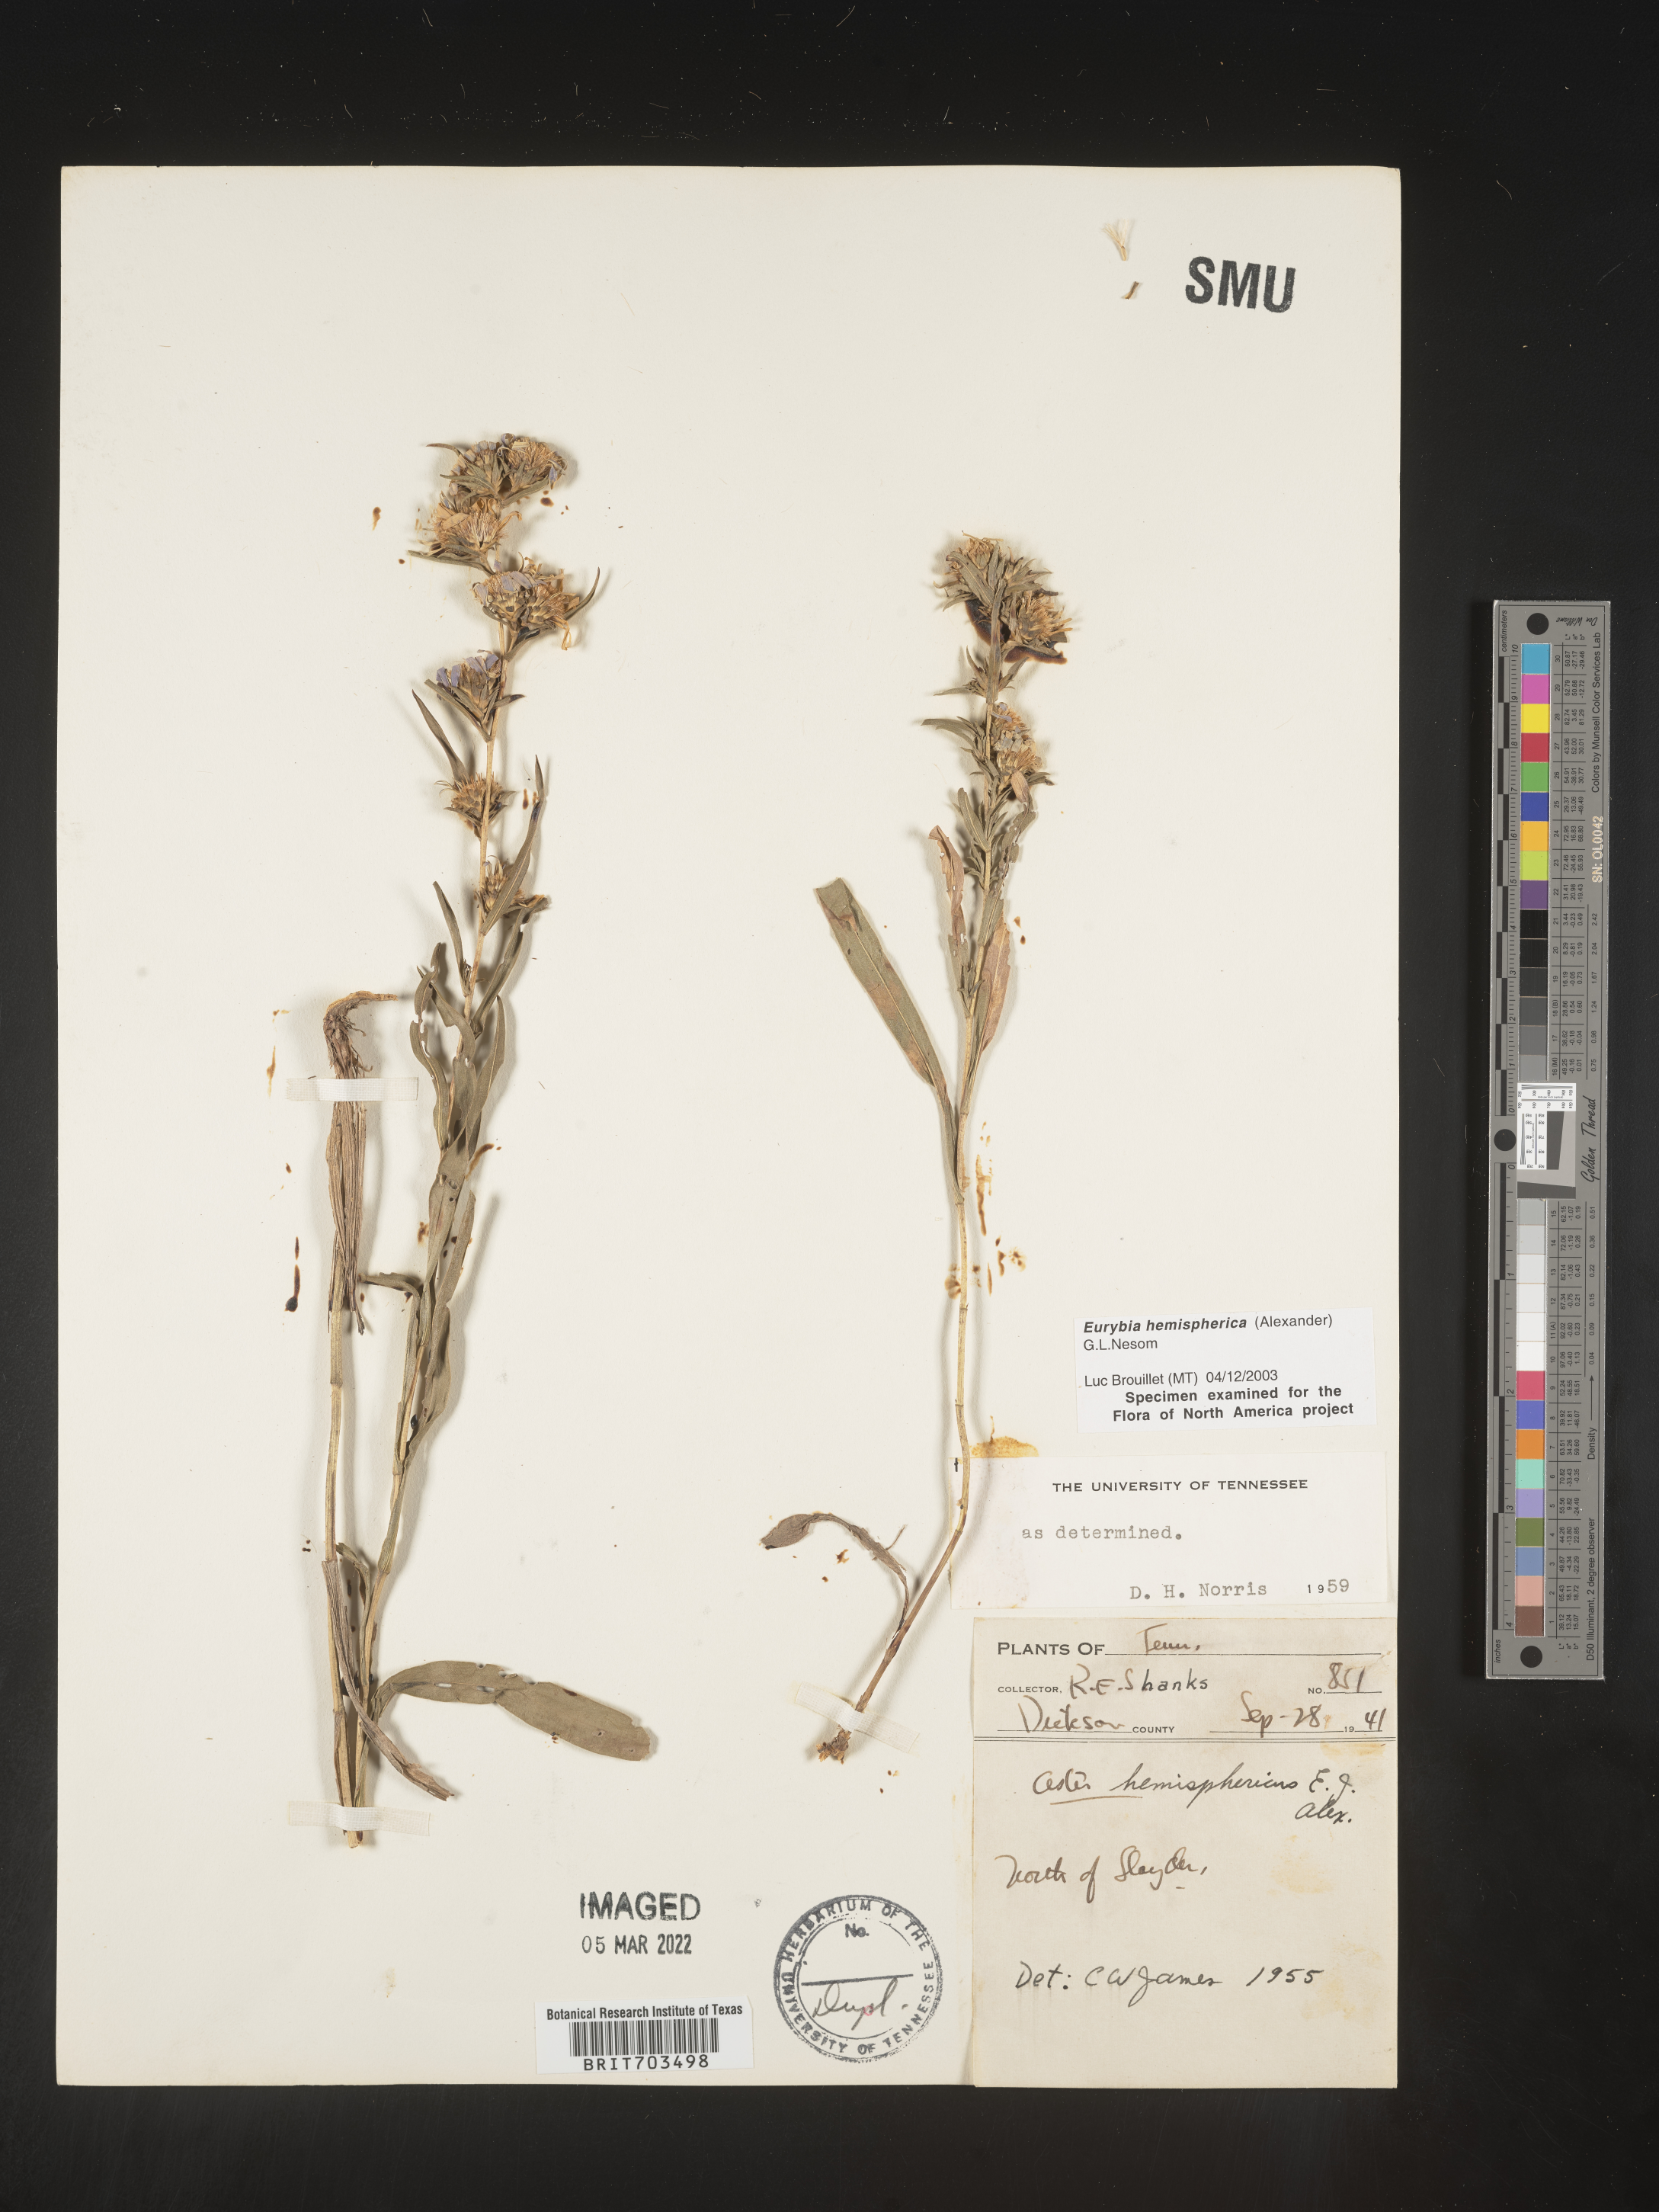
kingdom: Plantae
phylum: Tracheophyta
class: Magnoliopsida
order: Asterales
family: Asteraceae
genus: Eurybia
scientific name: Eurybia hemispherica
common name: Showy aster
